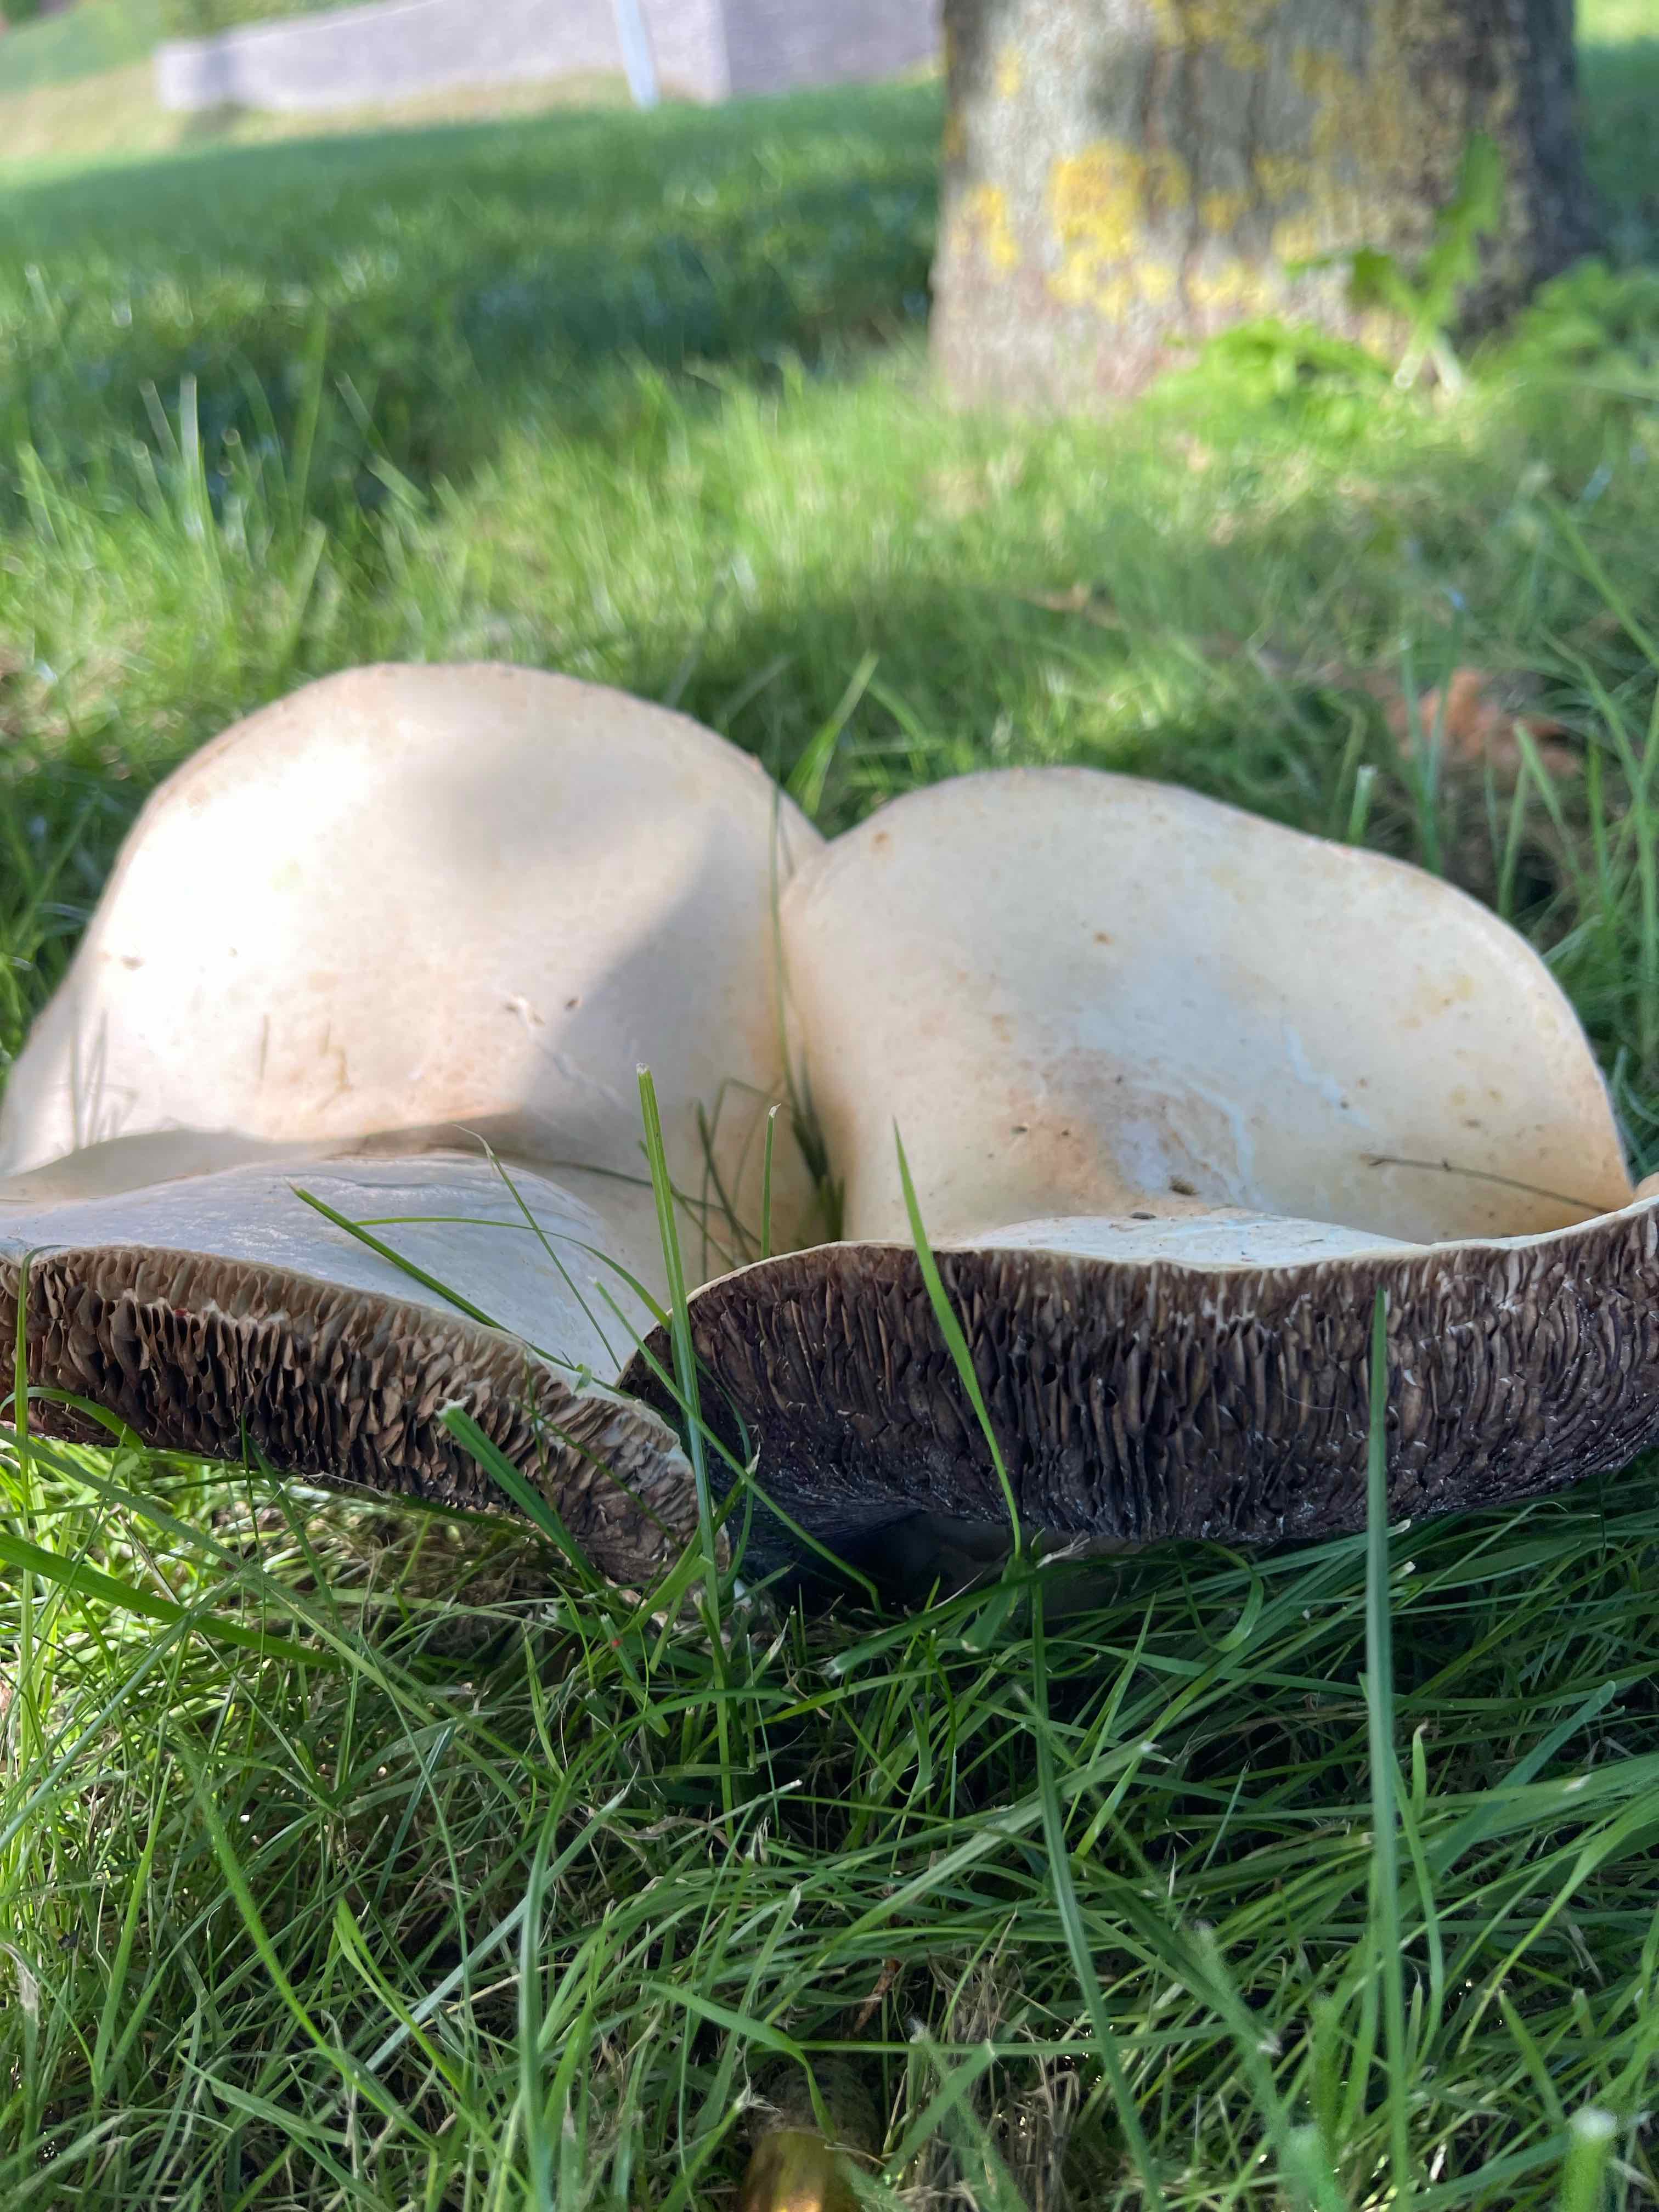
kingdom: Fungi
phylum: Basidiomycota
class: Agaricomycetes
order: Agaricales
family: Agaricaceae
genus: Agaricus
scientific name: Agaricus
